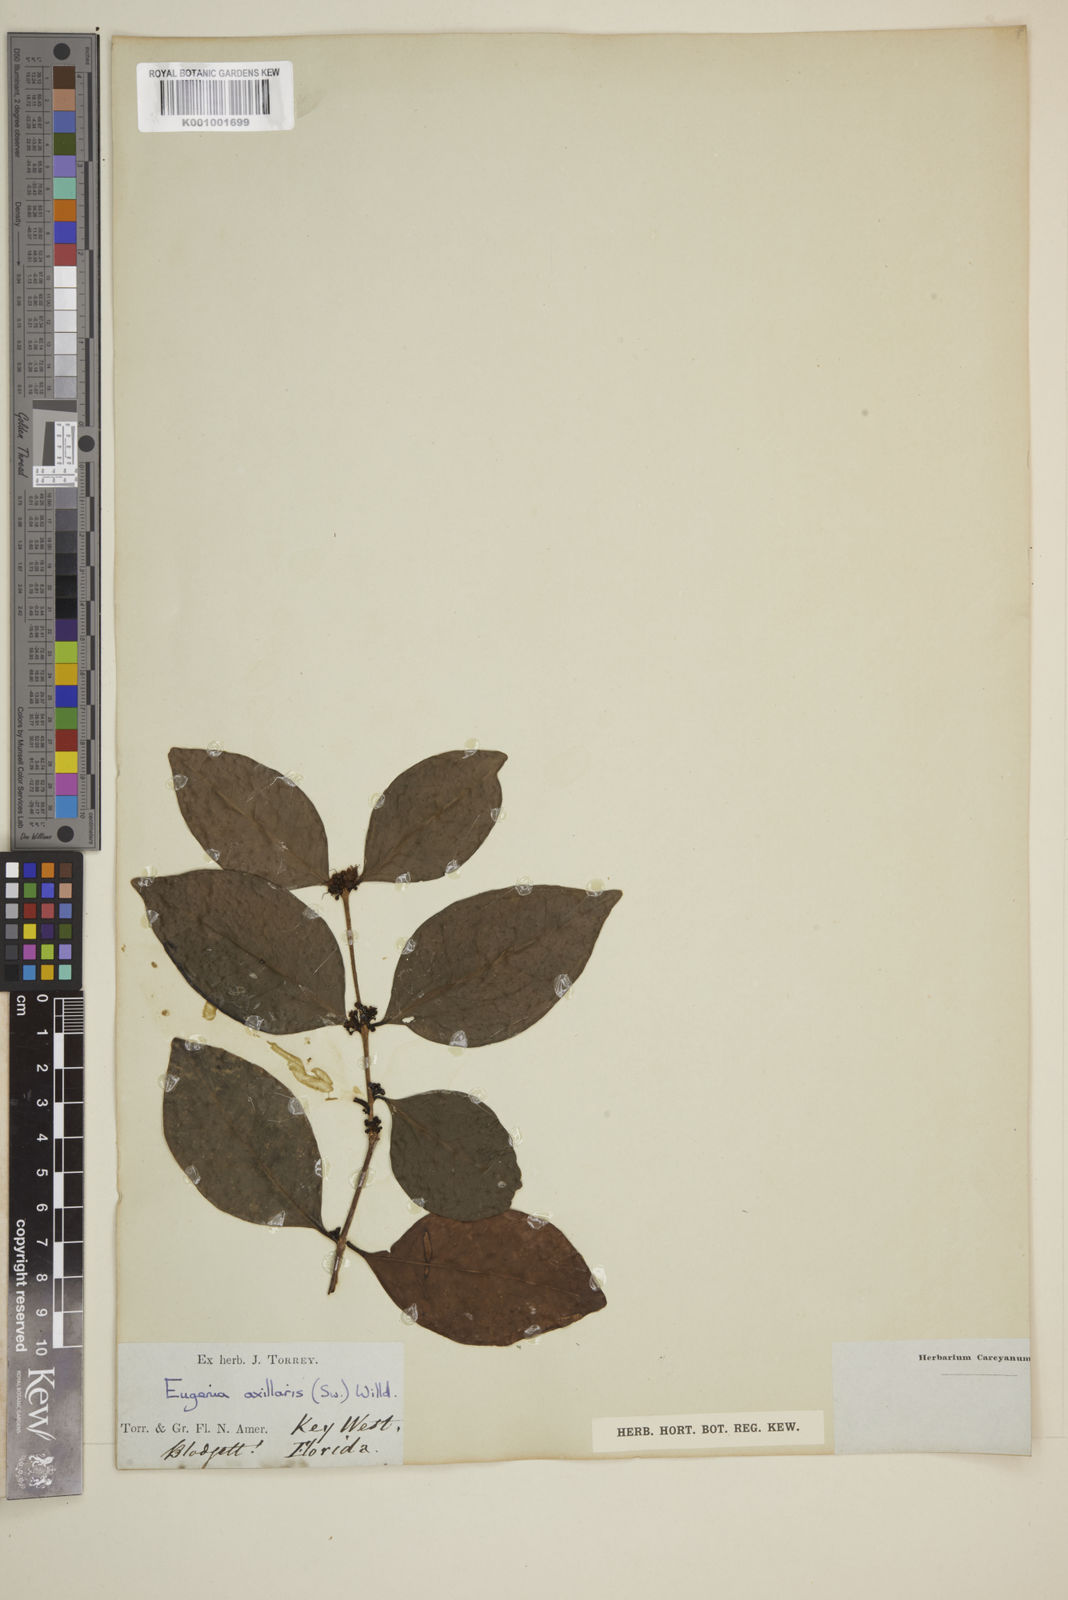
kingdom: Plantae
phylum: Tracheophyta
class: Magnoliopsida
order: Myrtales
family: Myrtaceae
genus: Eugenia
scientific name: Eugenia axillaris
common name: Choaky berry
